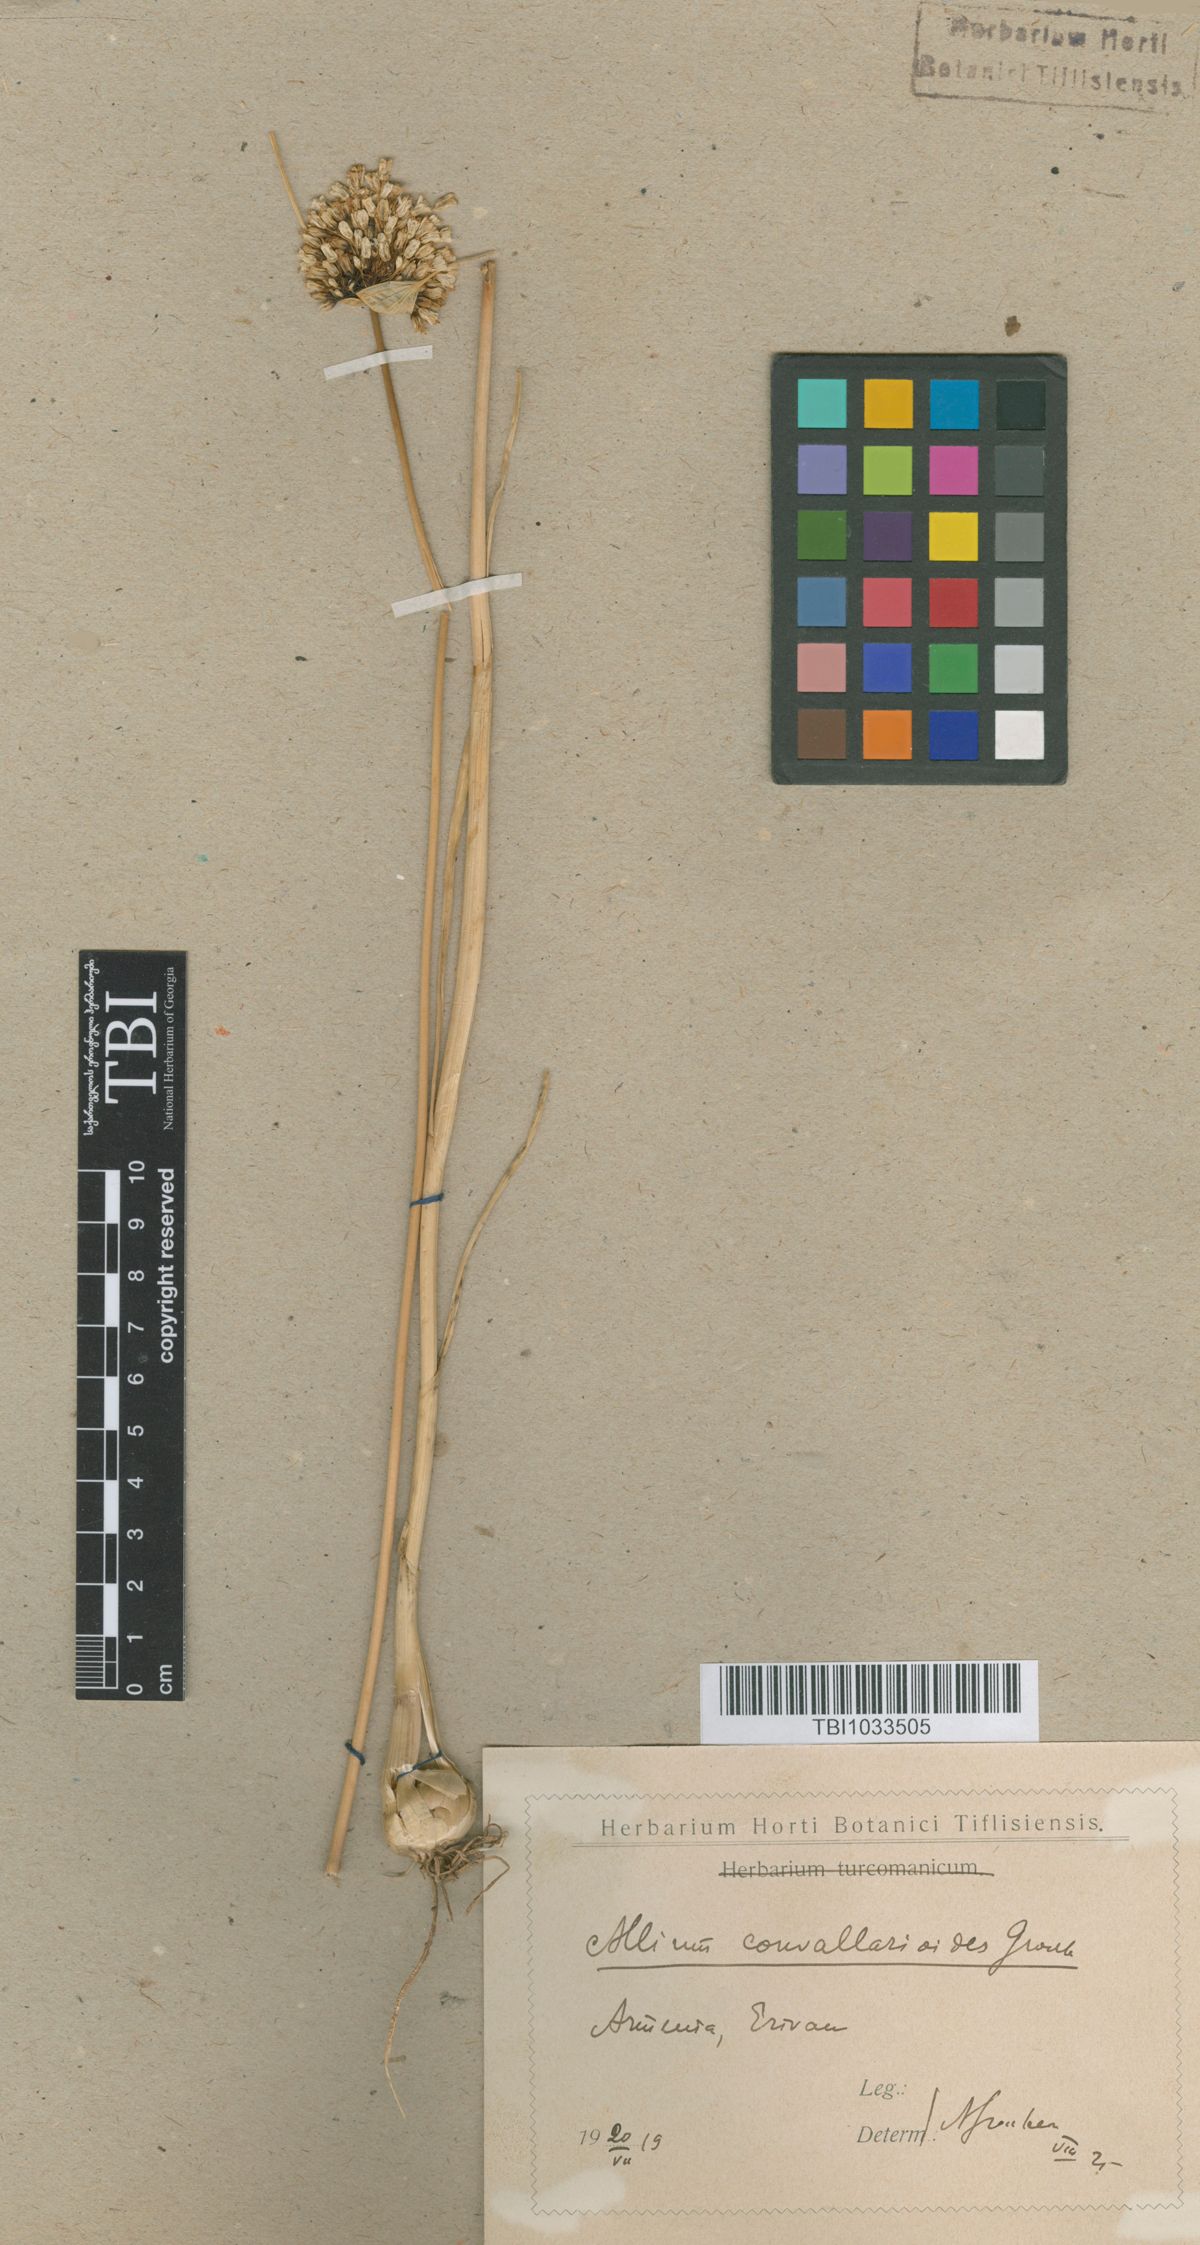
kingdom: Plantae
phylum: Tracheophyta
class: Liliopsida
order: Asparagales
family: Amaryllidaceae
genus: Allium
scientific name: Allium myrianthum
